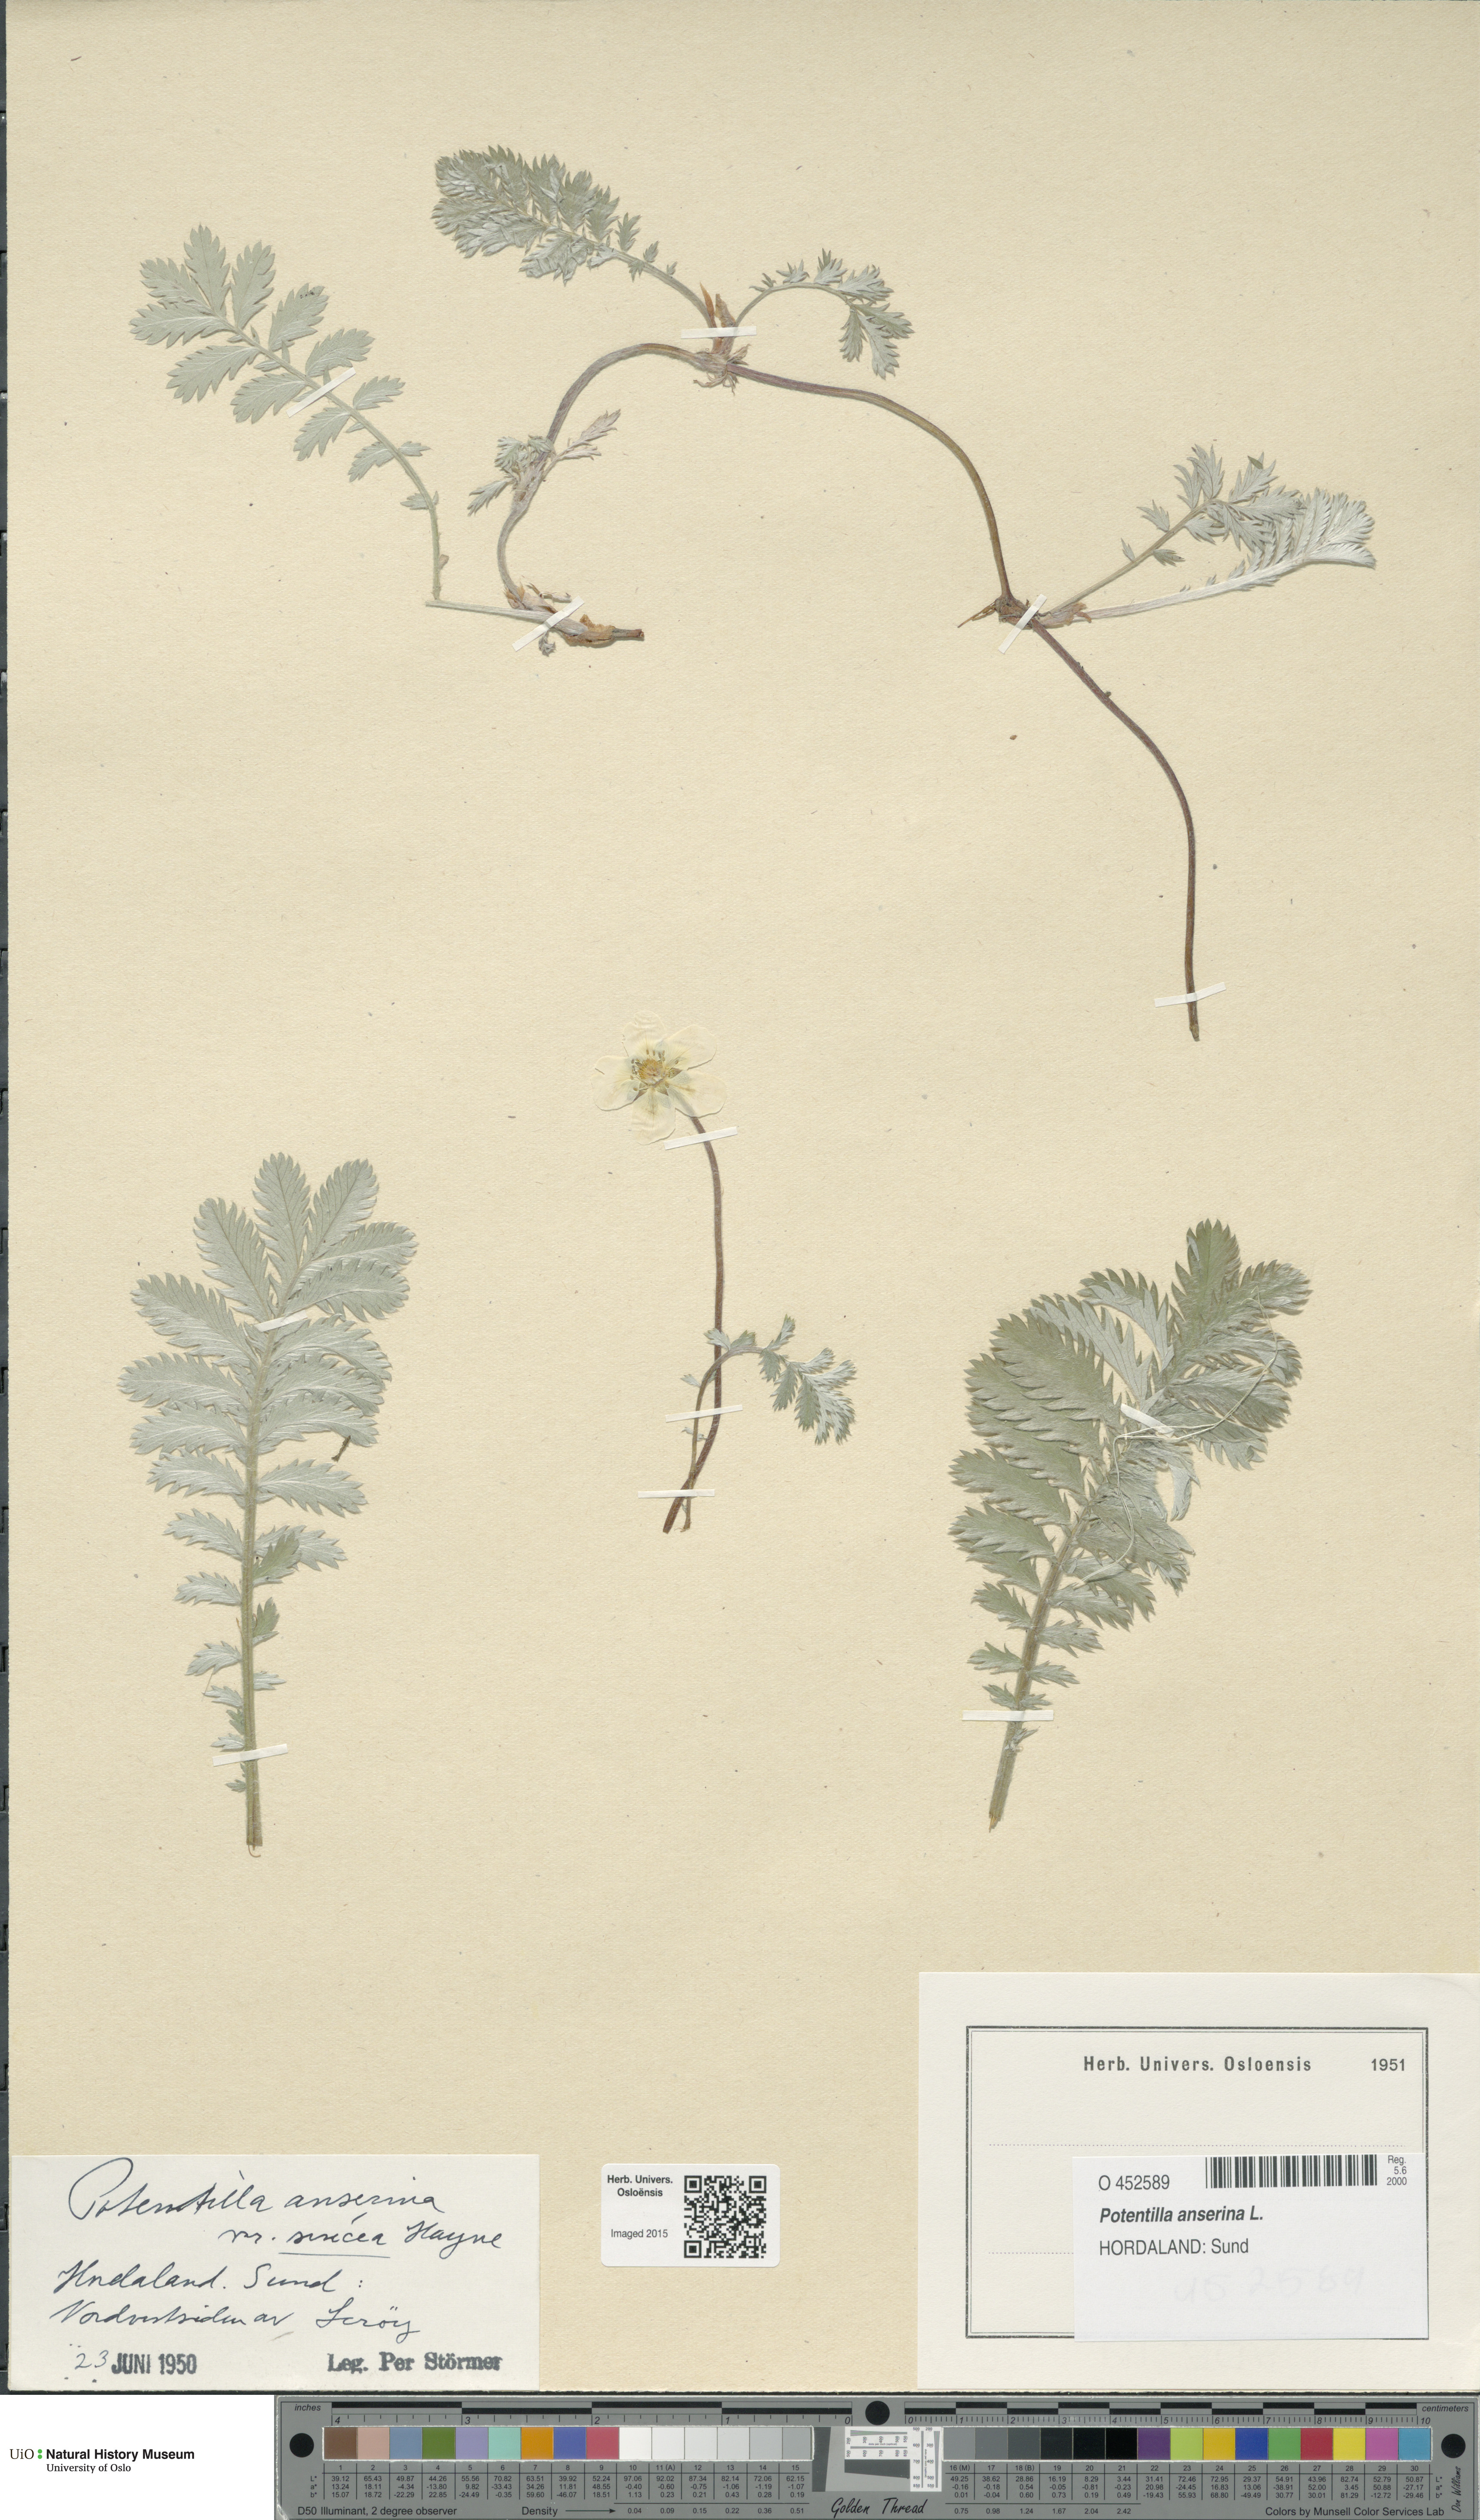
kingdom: Plantae
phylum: Tracheophyta
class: Magnoliopsida
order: Rosales
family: Rosaceae
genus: Argentina
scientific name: Argentina anserina
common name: Common silverweed
